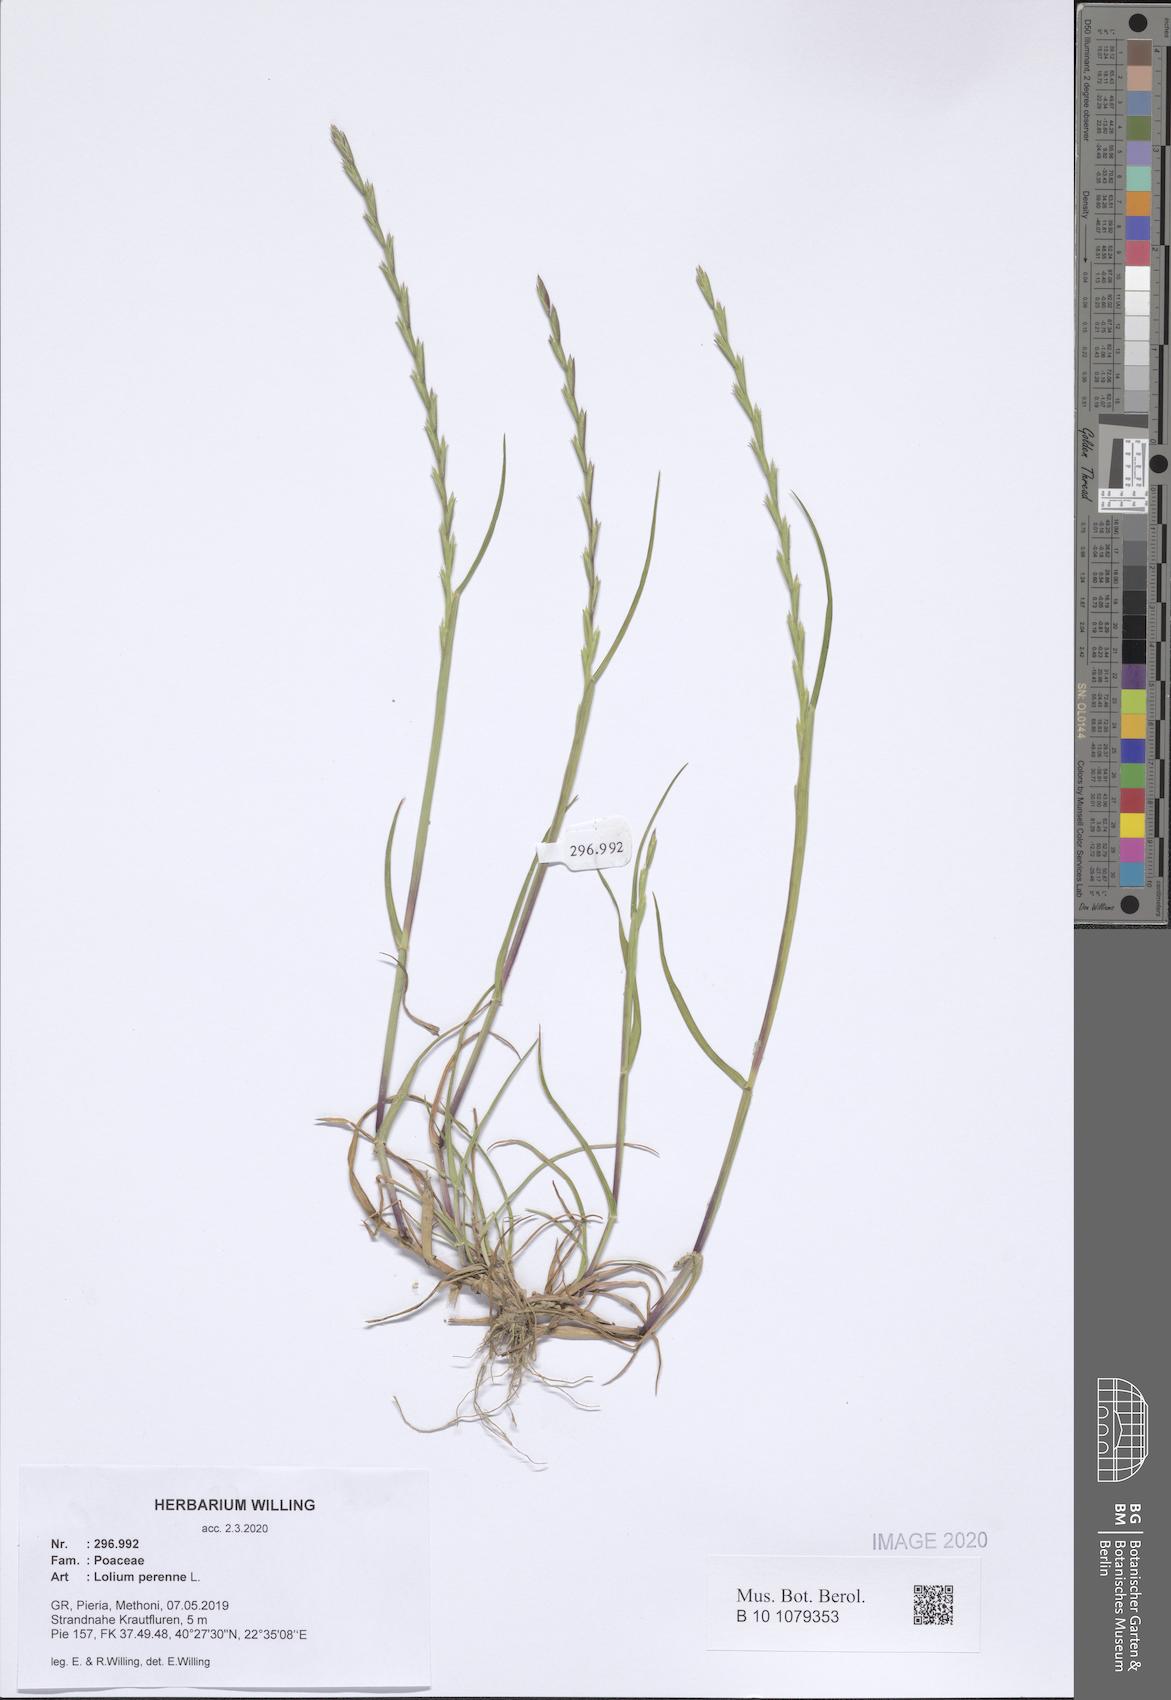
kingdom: Plantae
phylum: Tracheophyta
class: Liliopsida
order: Poales
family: Poaceae
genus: Lolium
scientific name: Lolium perenne
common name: Perennial ryegrass
